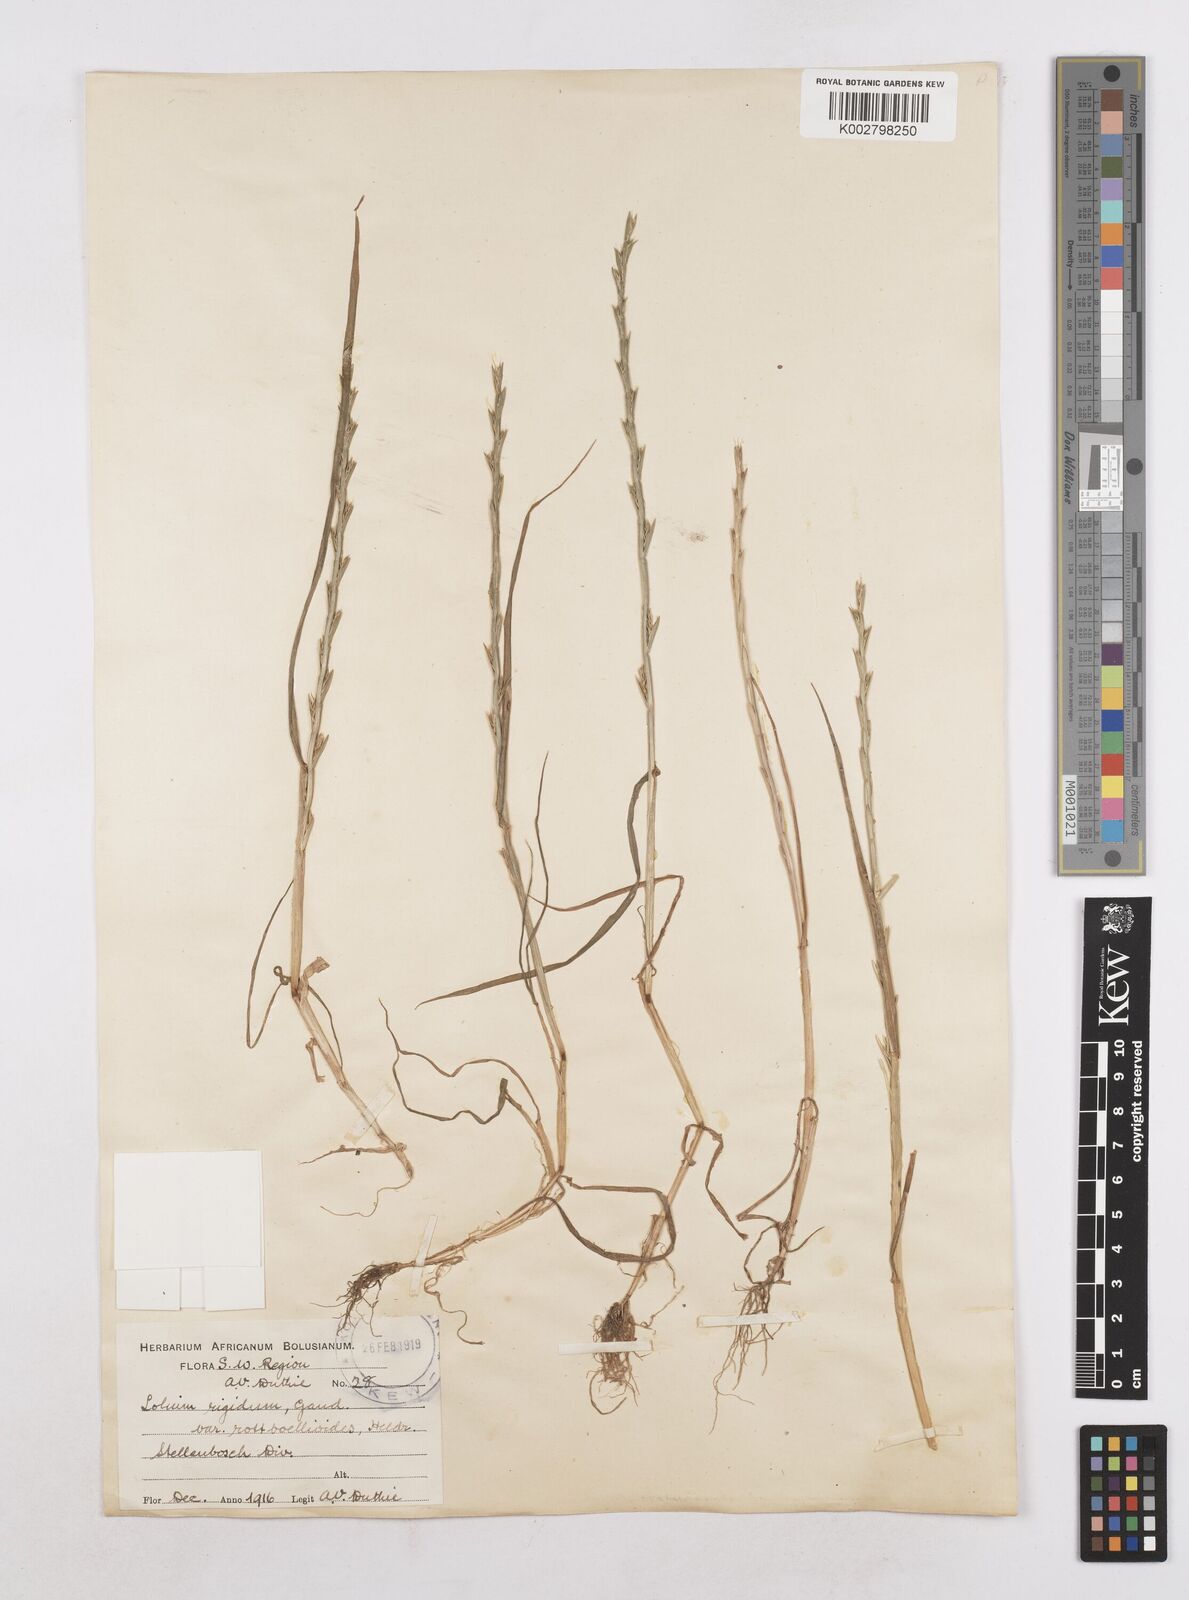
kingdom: Plantae
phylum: Tracheophyta
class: Liliopsida
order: Poales
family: Poaceae
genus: Lolium
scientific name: Lolium rigidum
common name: Wimmera ryegrass
